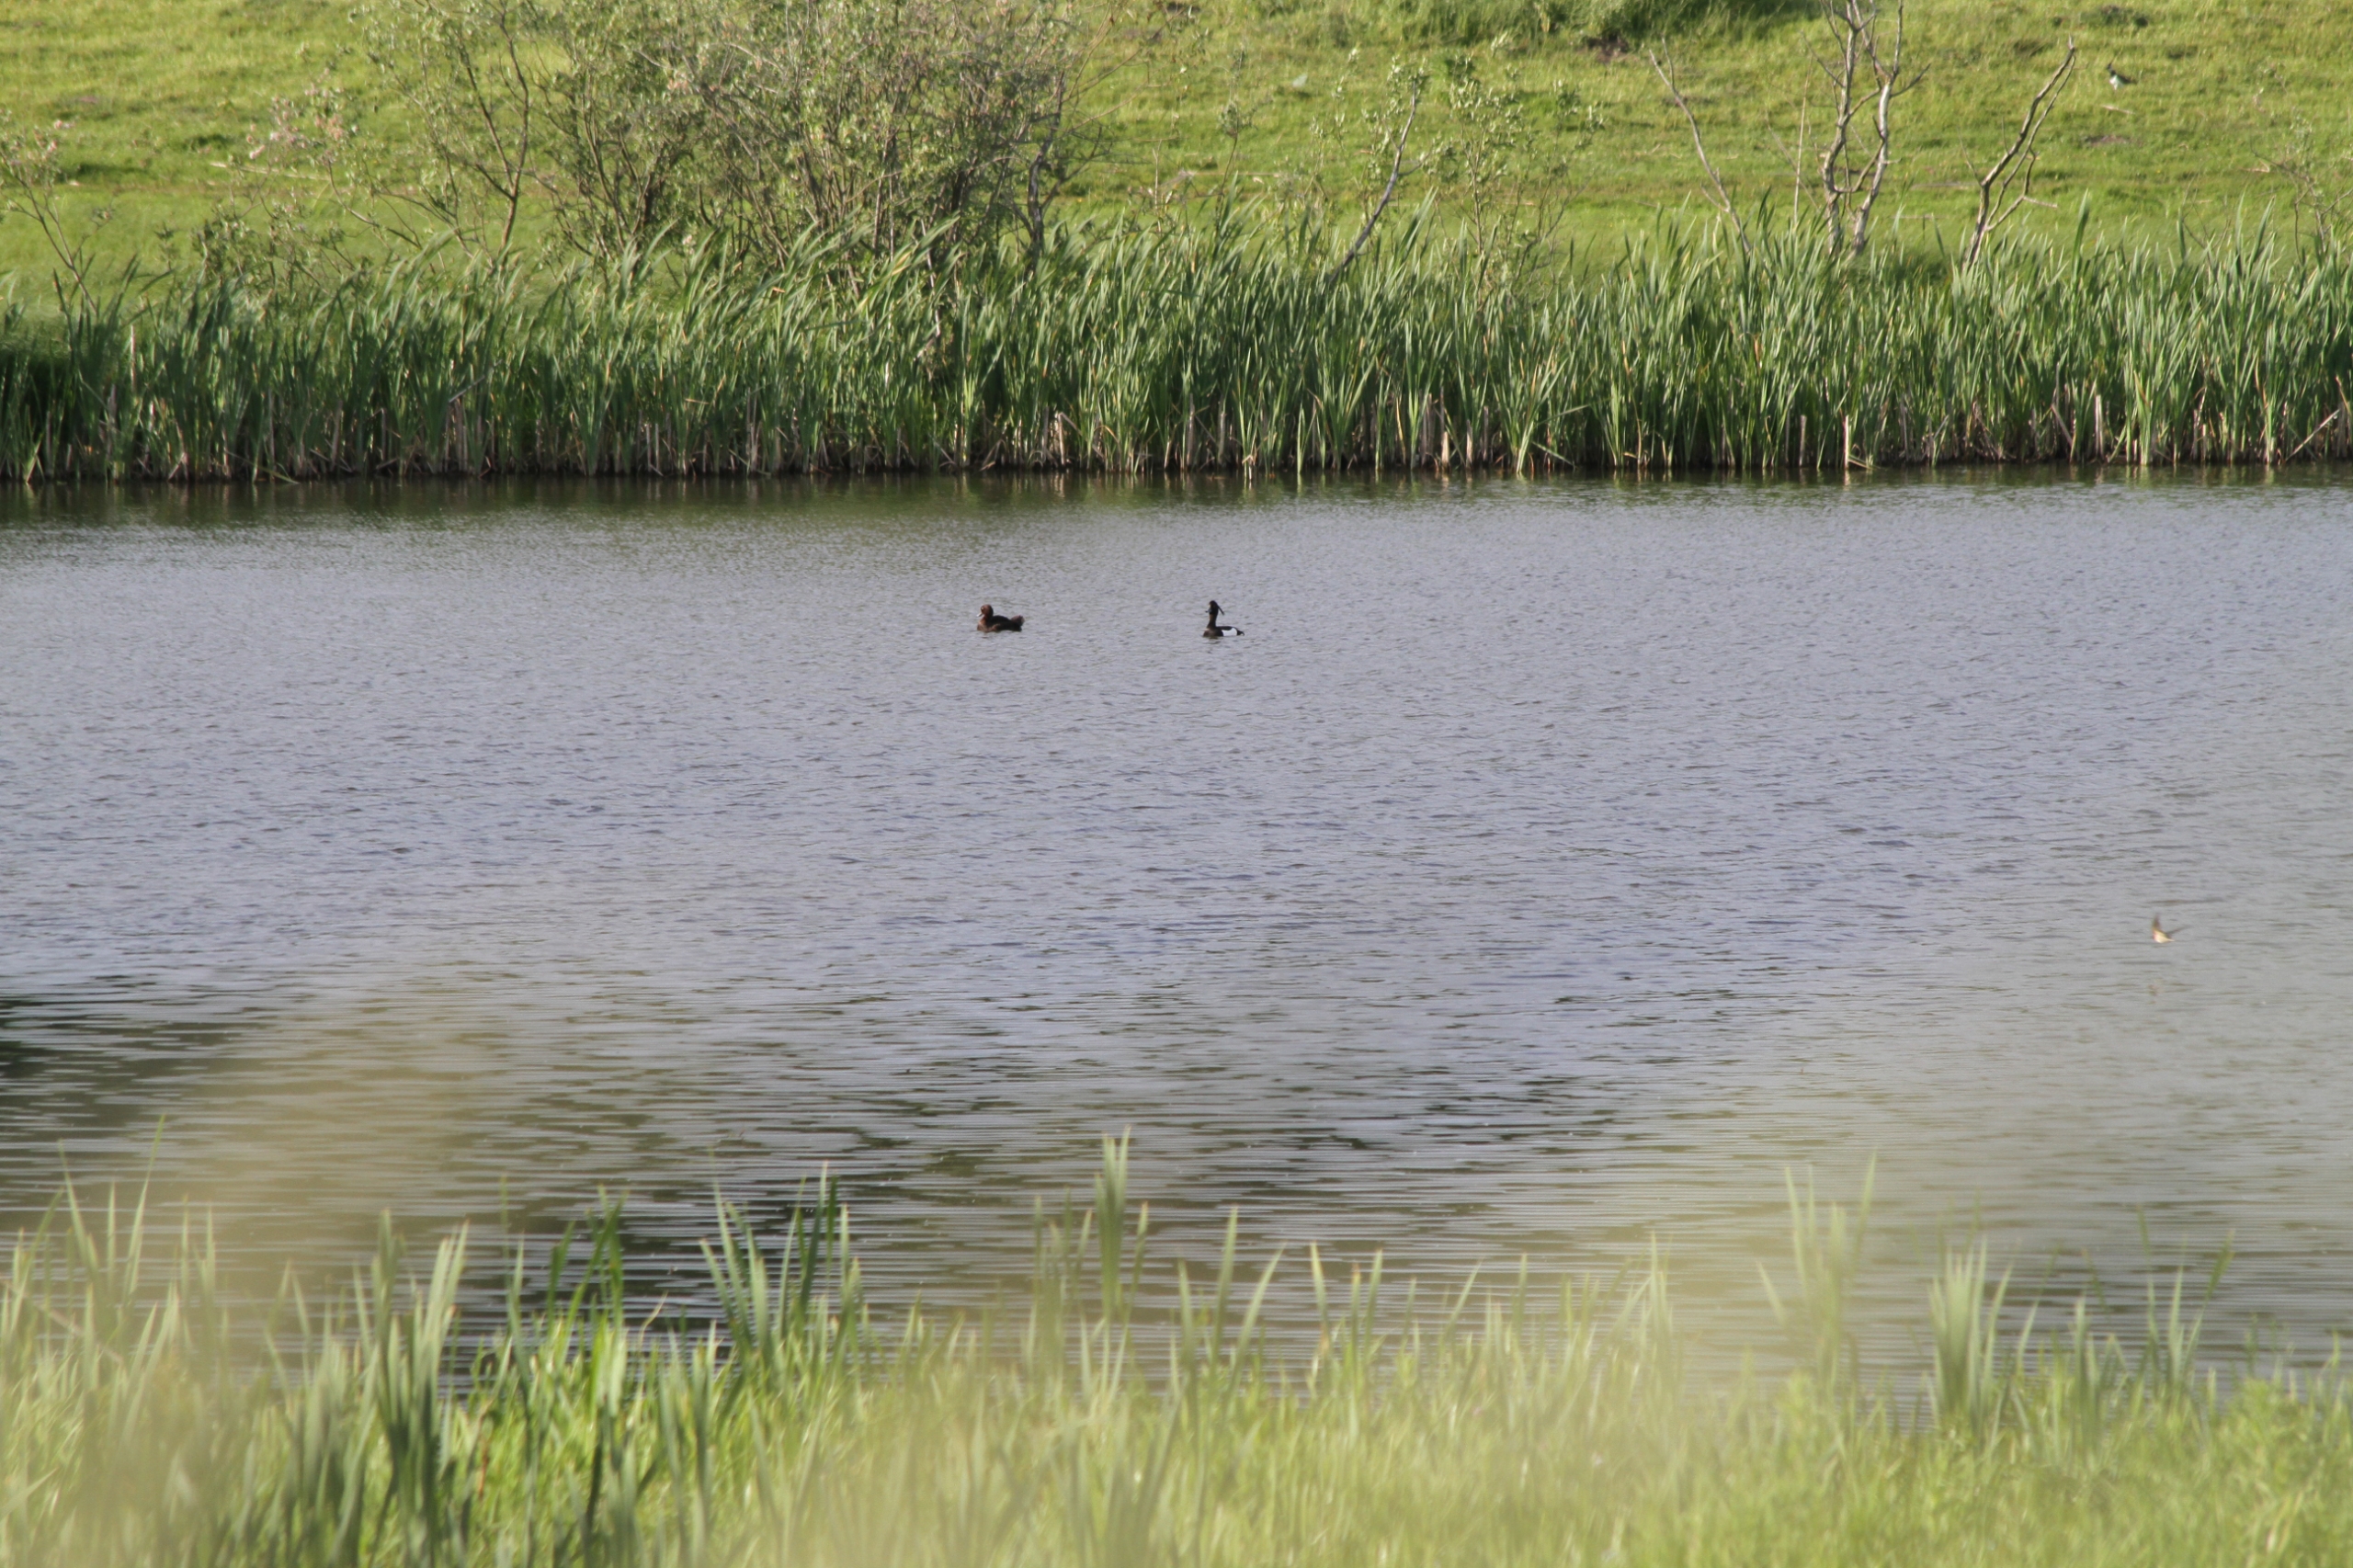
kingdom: Animalia
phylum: Chordata
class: Aves
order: Anseriformes
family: Anatidae
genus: Aythya
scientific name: Aythya fuligula
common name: Troldand
